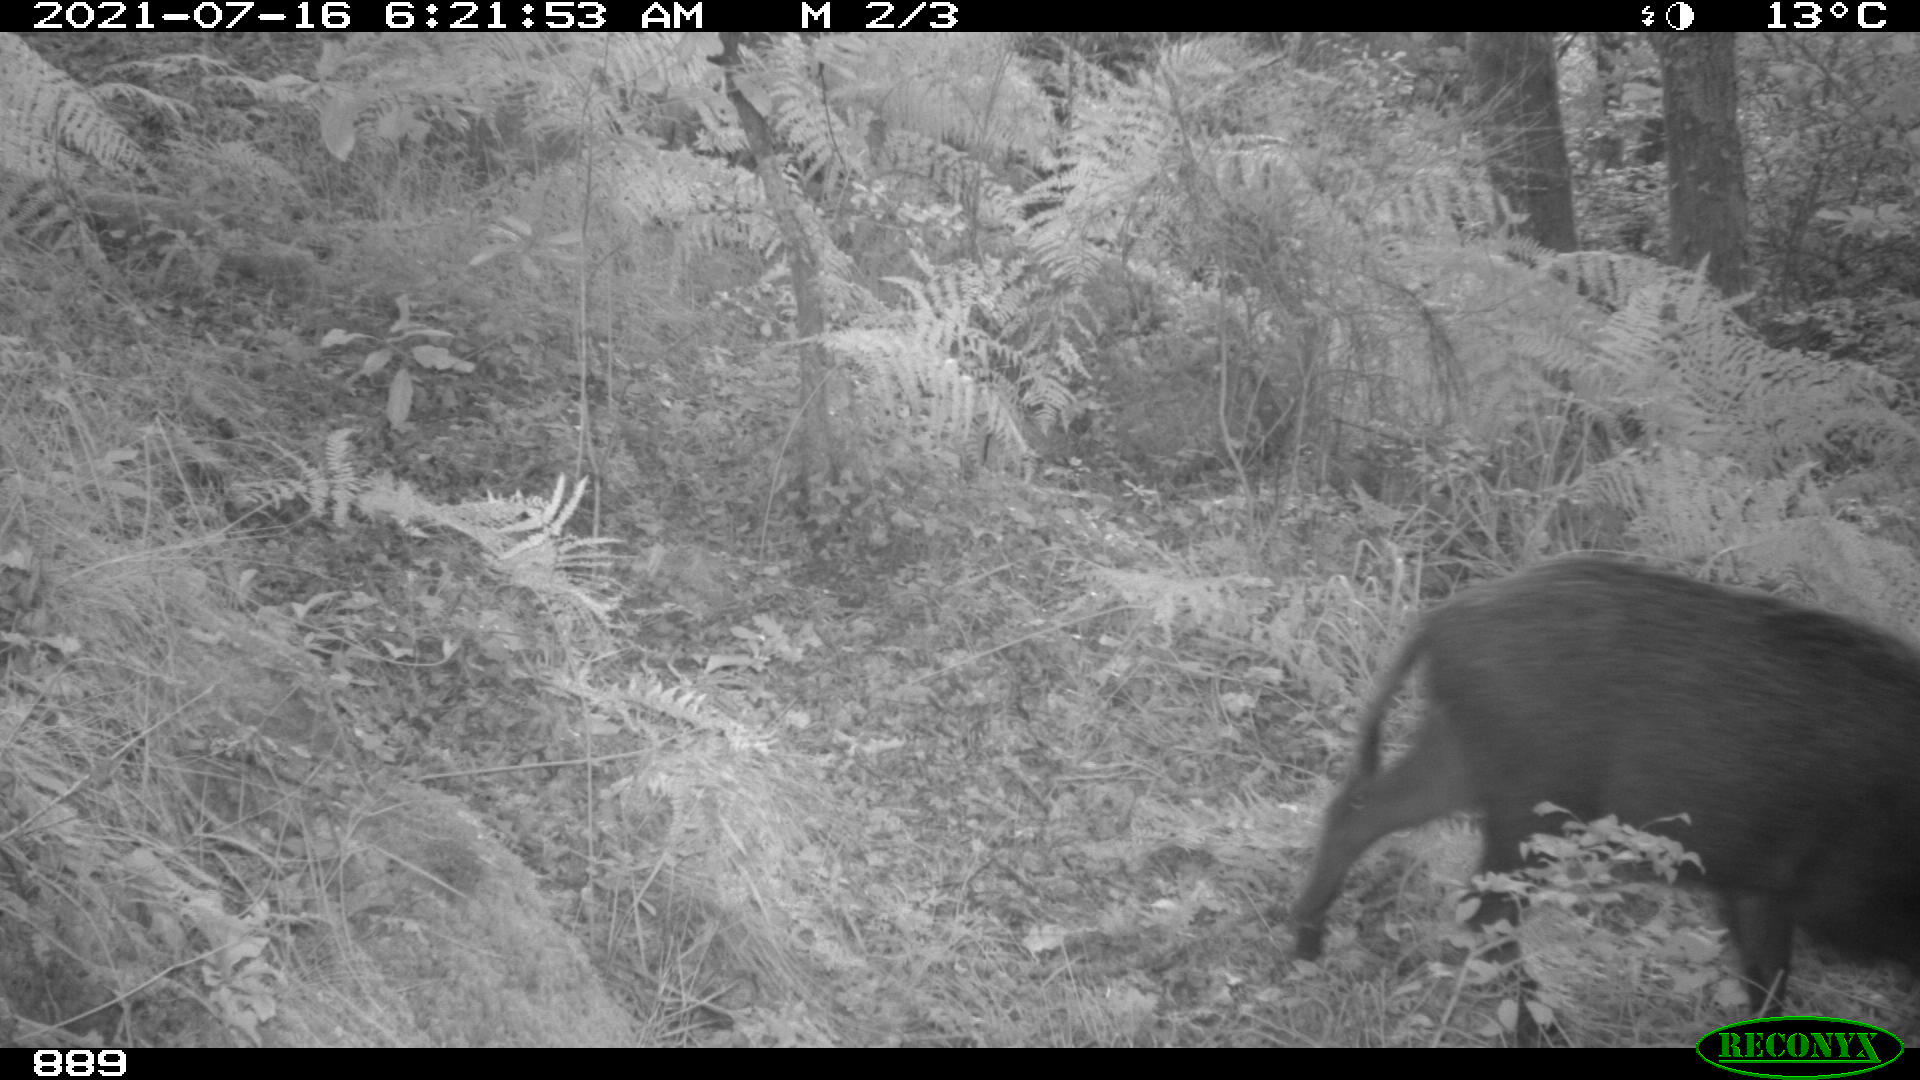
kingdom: Animalia
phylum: Chordata
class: Mammalia
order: Artiodactyla
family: Suidae
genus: Sus
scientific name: Sus scrofa
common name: Wild boar
